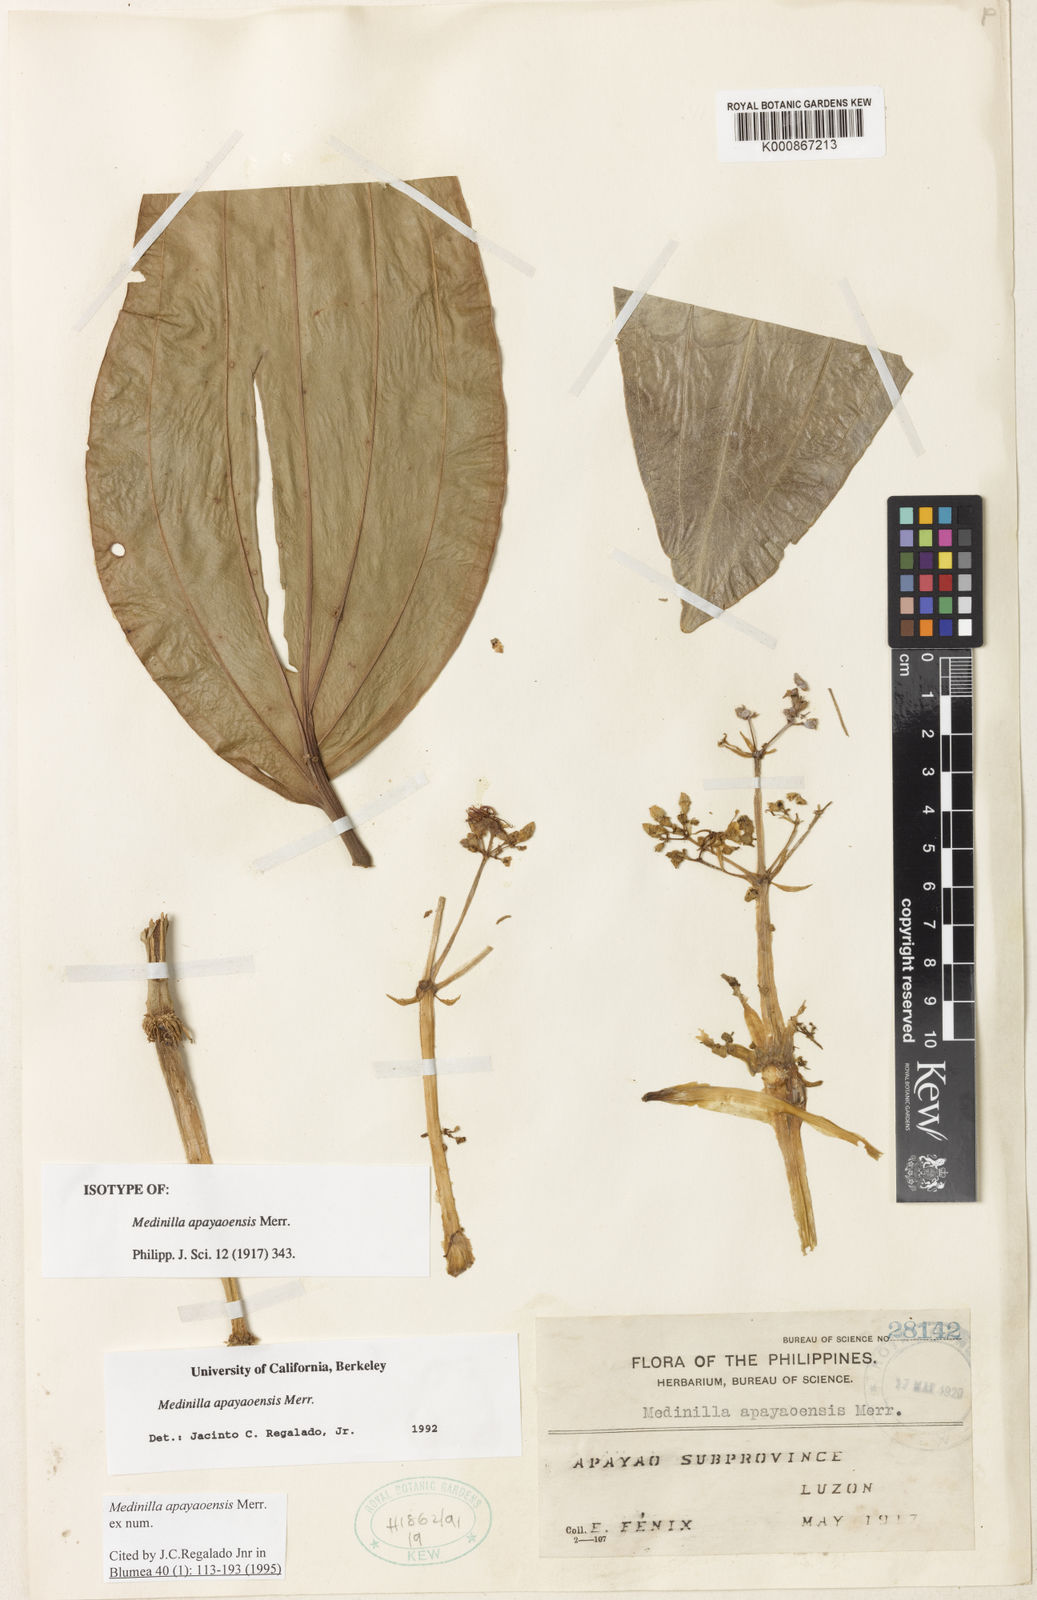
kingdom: Plantae
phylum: Tracheophyta
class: Magnoliopsida
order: Myrtales
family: Melastomataceae
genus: Medinilla
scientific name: Medinilla apayaoensis
